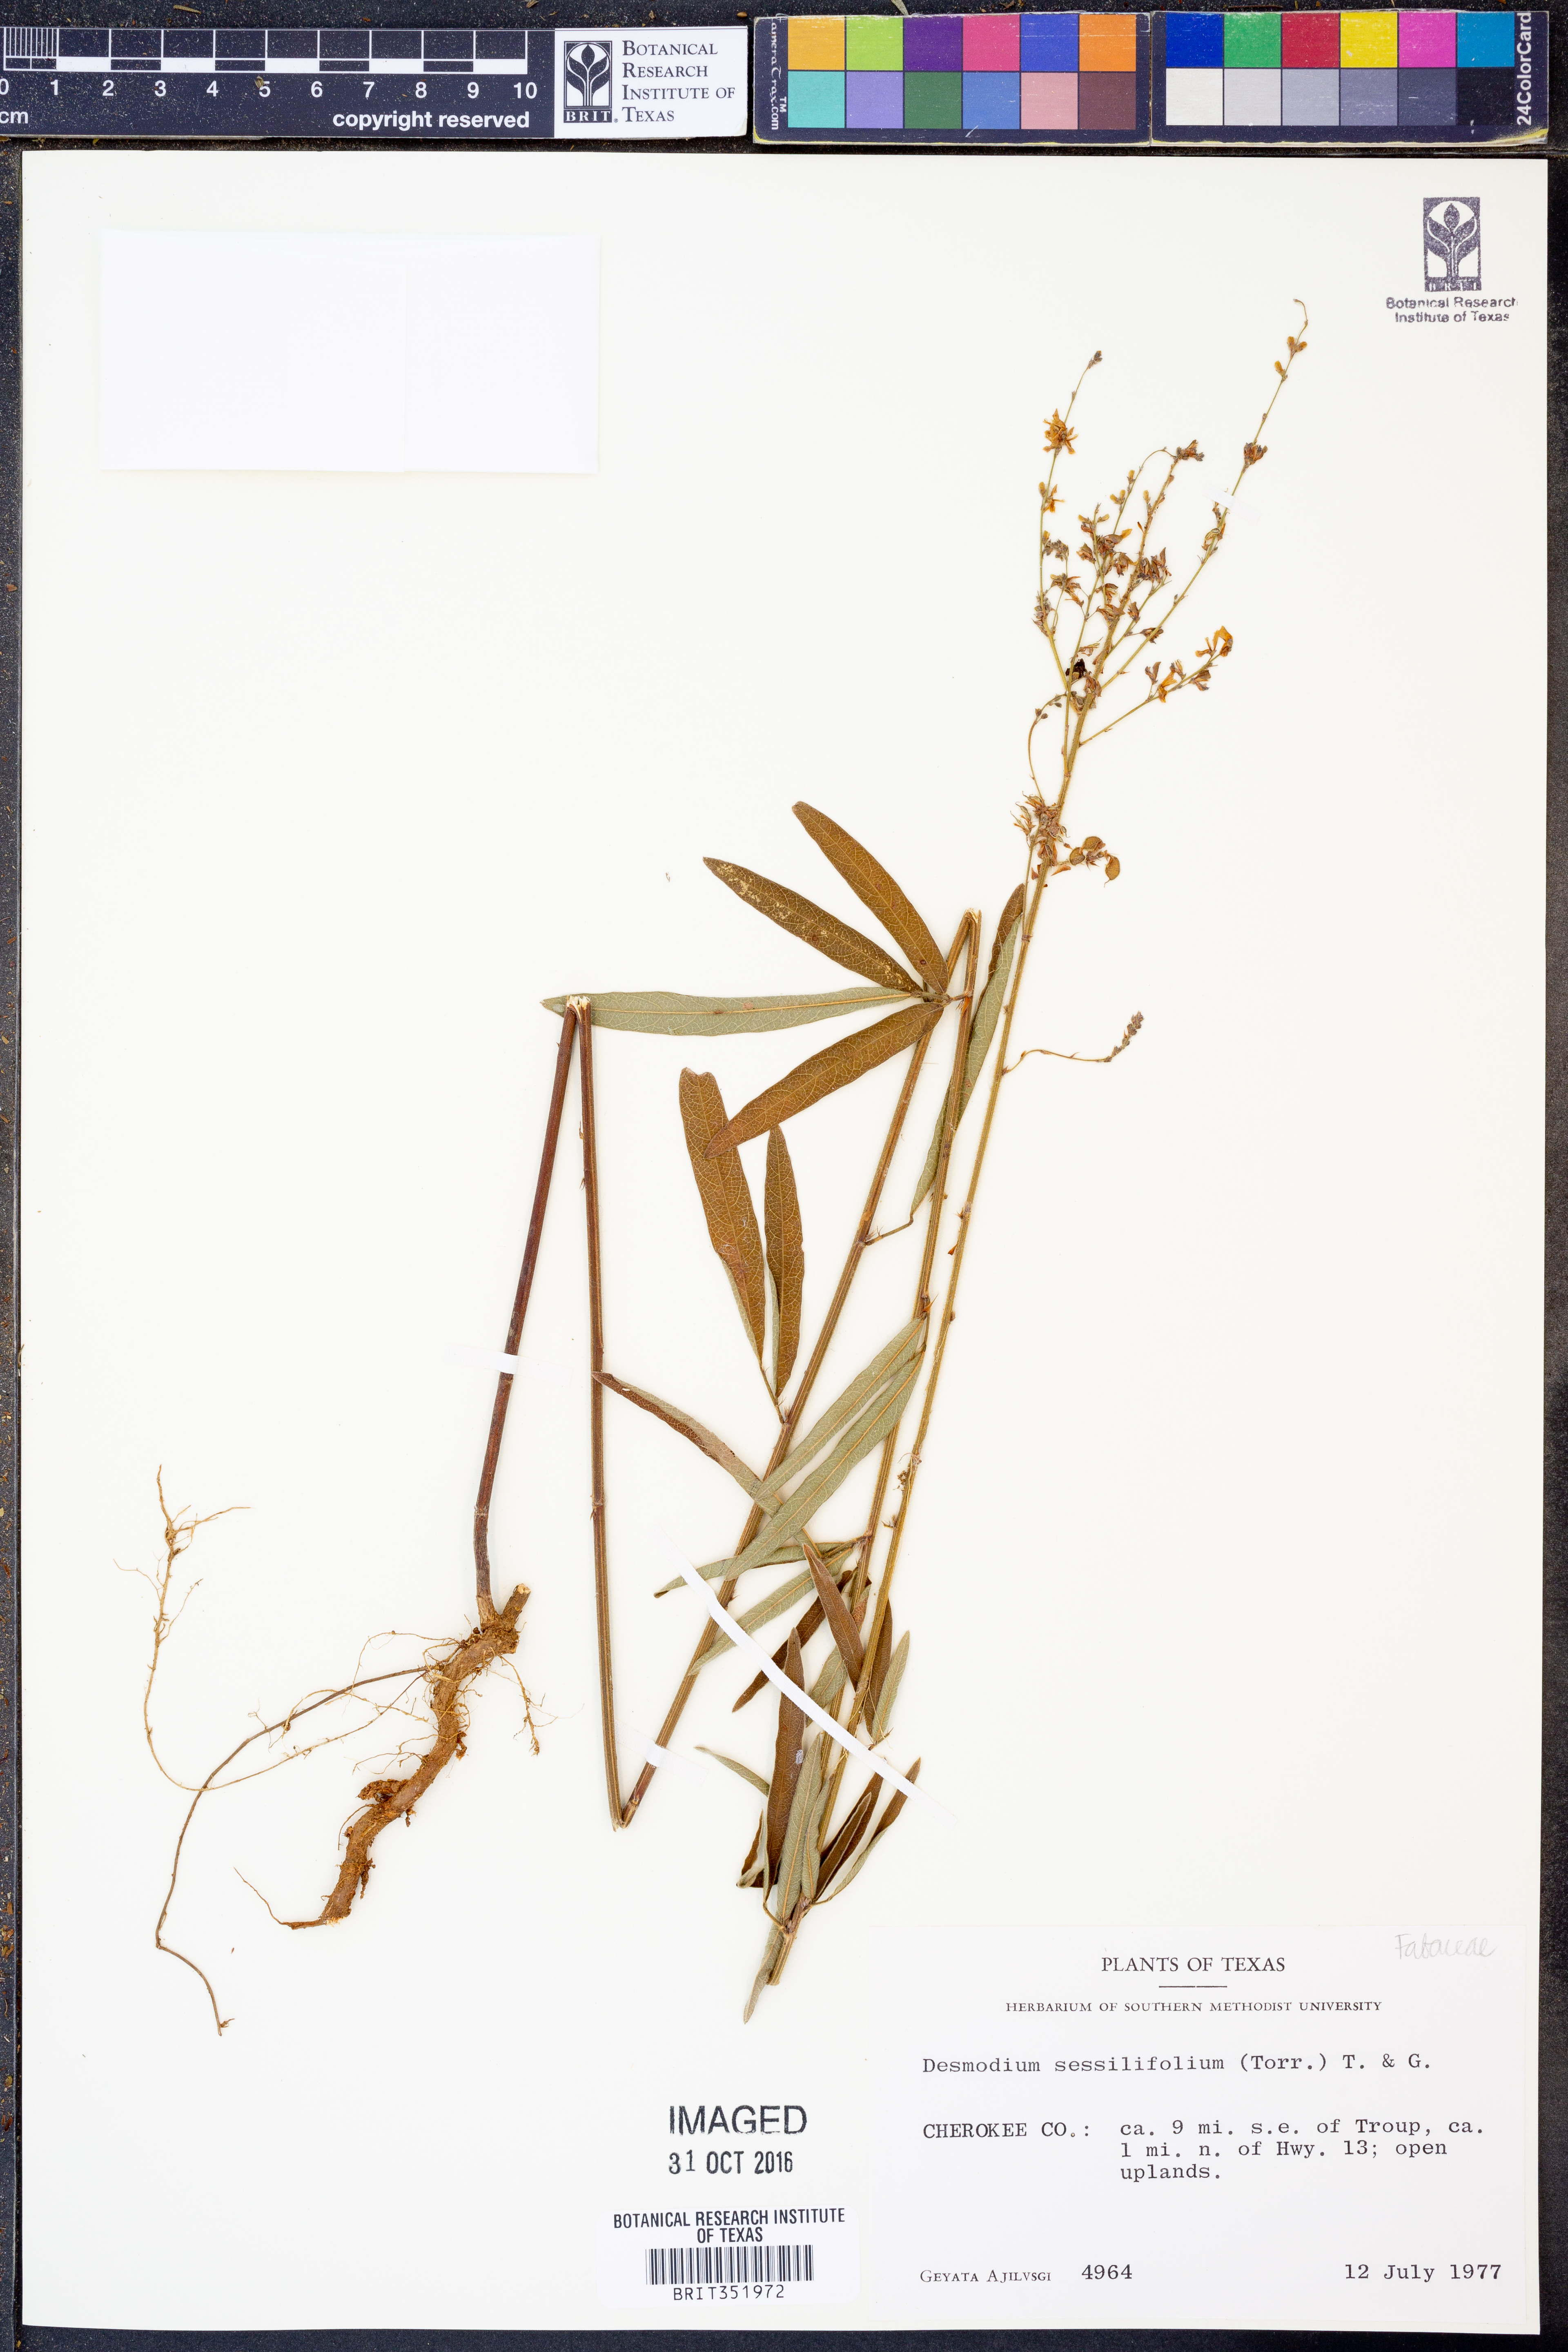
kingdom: Plantae
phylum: Tracheophyta
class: Magnoliopsida
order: Fabales
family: Fabaceae
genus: Desmodium
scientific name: Desmodium sessilifolium
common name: Sessile tick-clover
